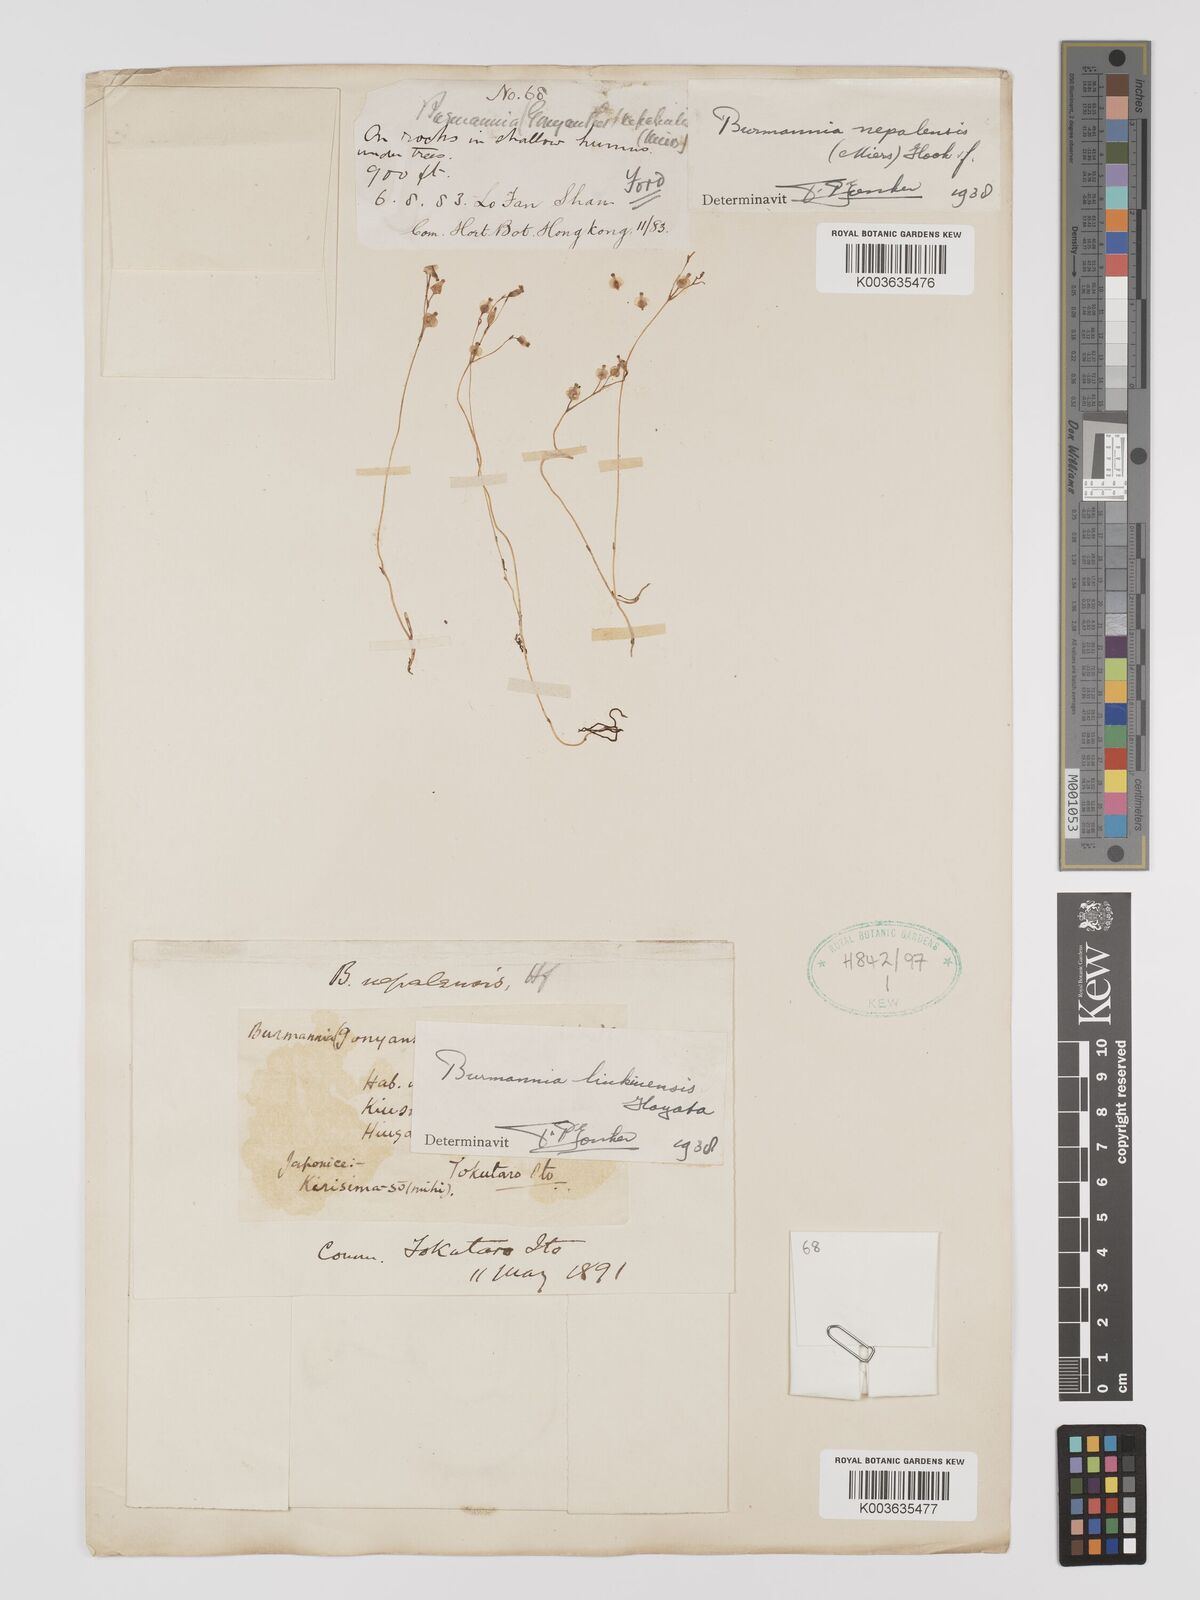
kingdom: Plantae
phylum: Tracheophyta
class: Liliopsida
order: Dioscoreales
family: Burmanniaceae
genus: Burmannia
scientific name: Burmannia nepalensis
